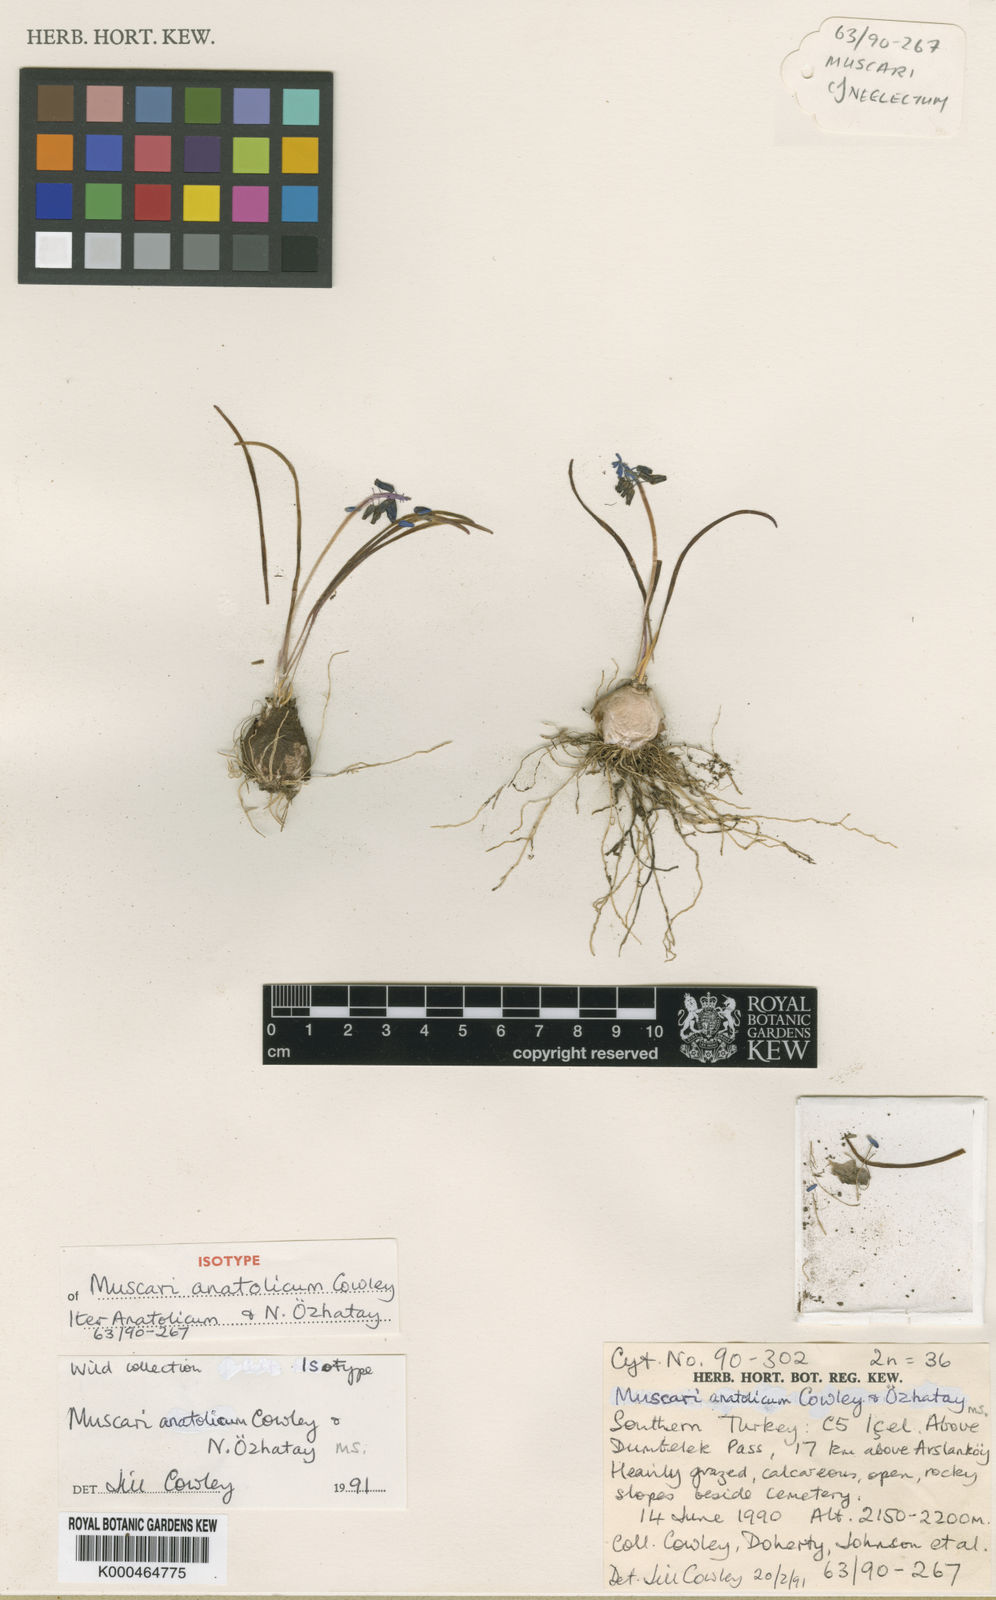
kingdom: Plantae
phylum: Tracheophyta
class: Liliopsida
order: Asparagales
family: Asparagaceae
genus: Muscari
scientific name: Muscari
